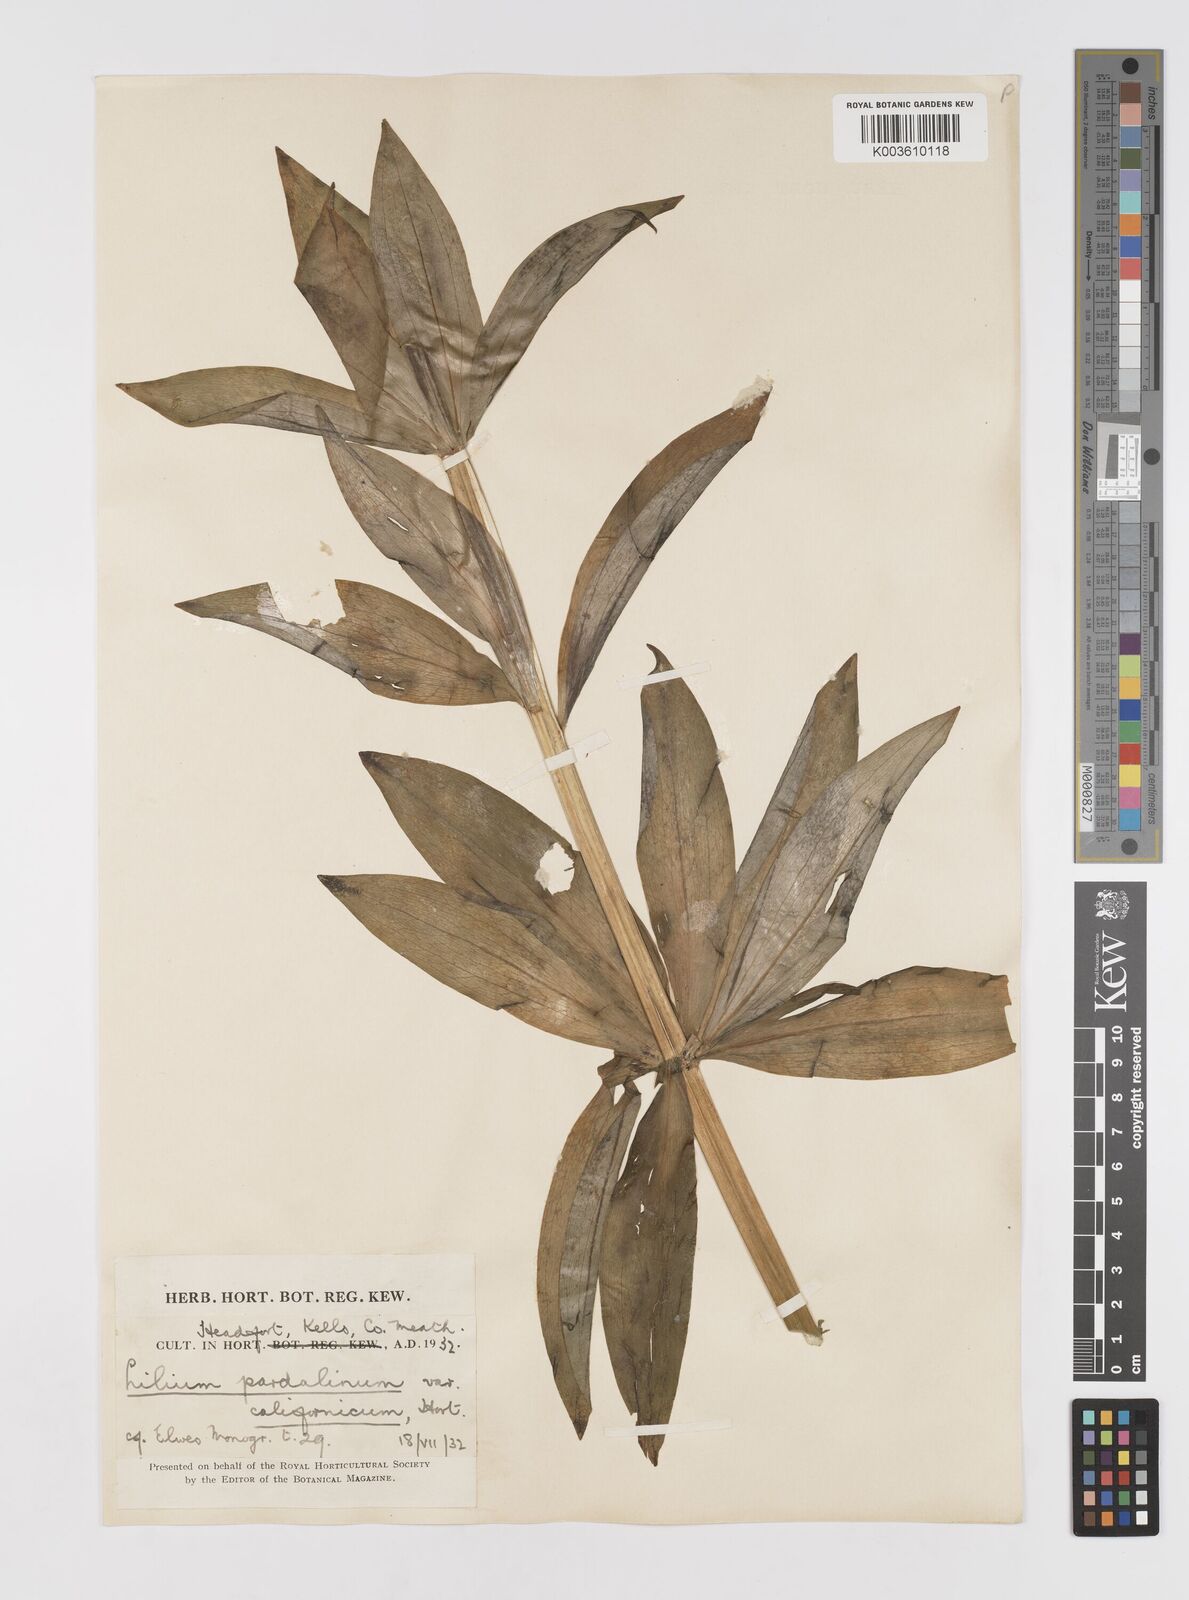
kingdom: Plantae
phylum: Tracheophyta
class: Liliopsida
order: Liliales
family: Liliaceae
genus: Lilium
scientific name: Lilium pardalinum
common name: Panther lily
